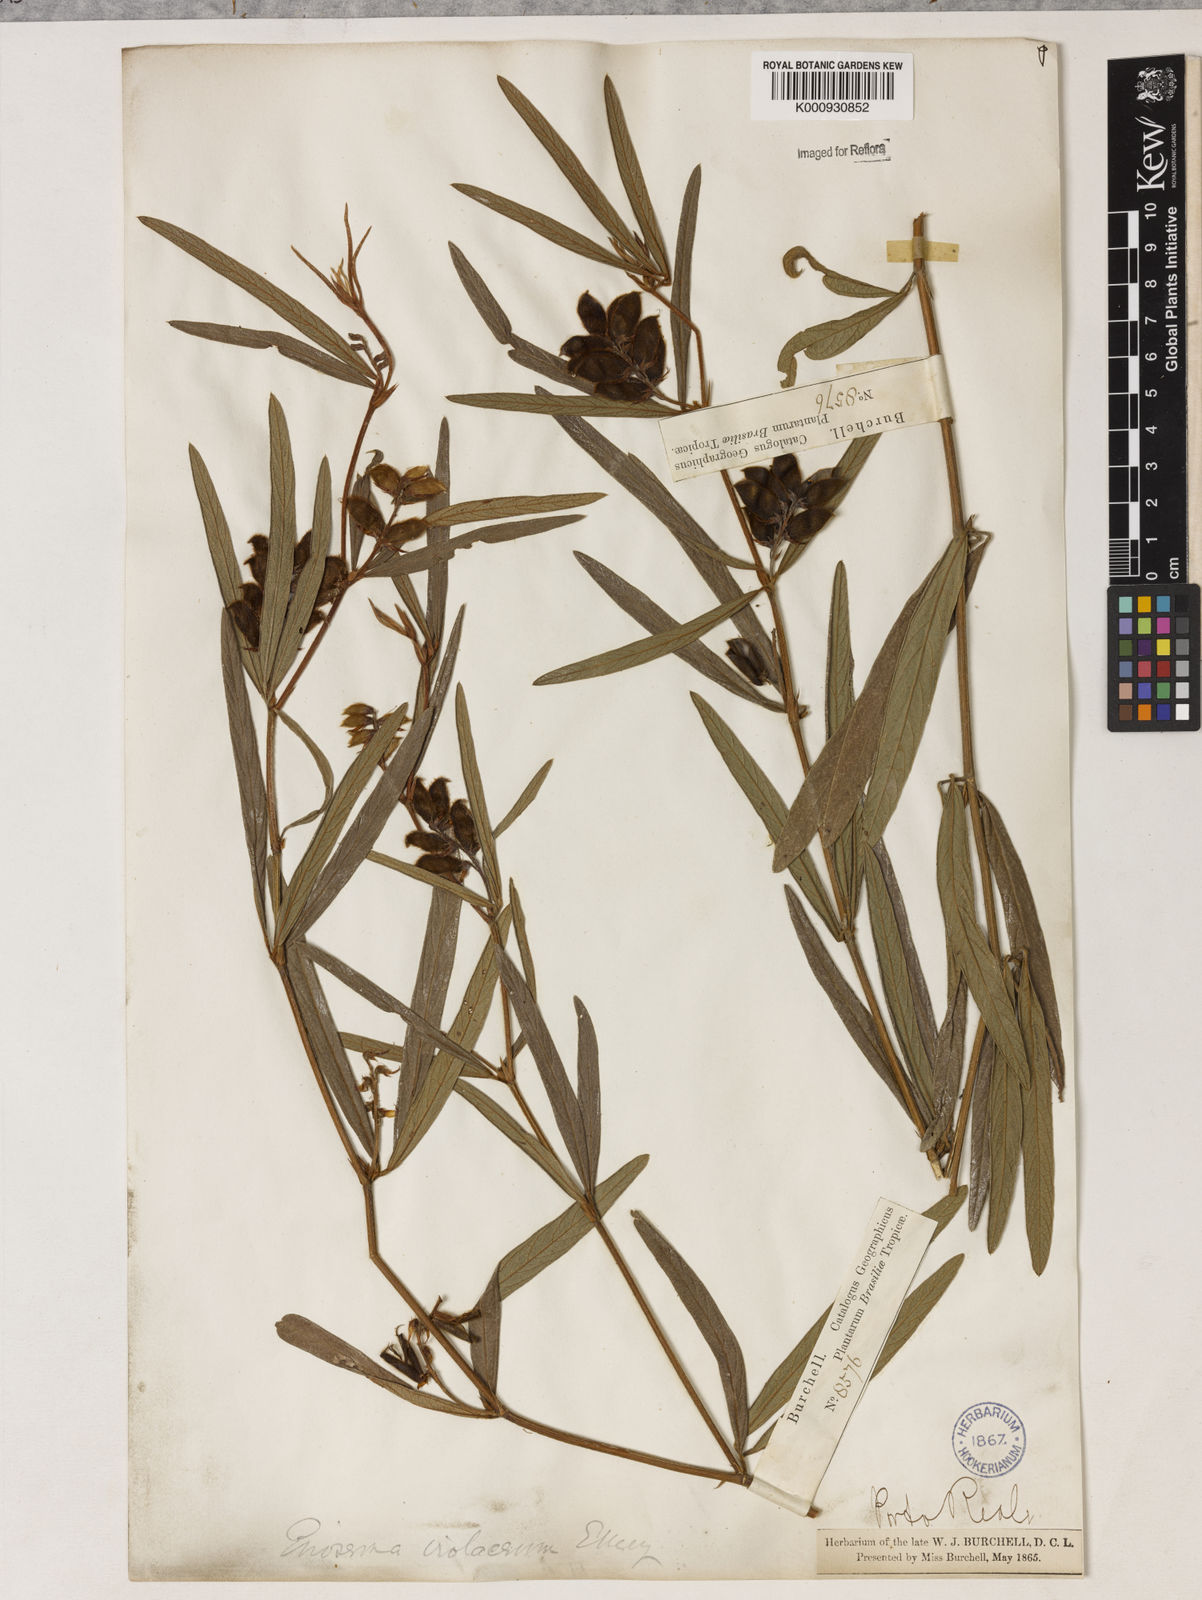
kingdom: Plantae
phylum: Tracheophyta
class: Magnoliopsida
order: Fabales
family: Fabaceae
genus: Eriosema
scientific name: Eriosema violaceum
